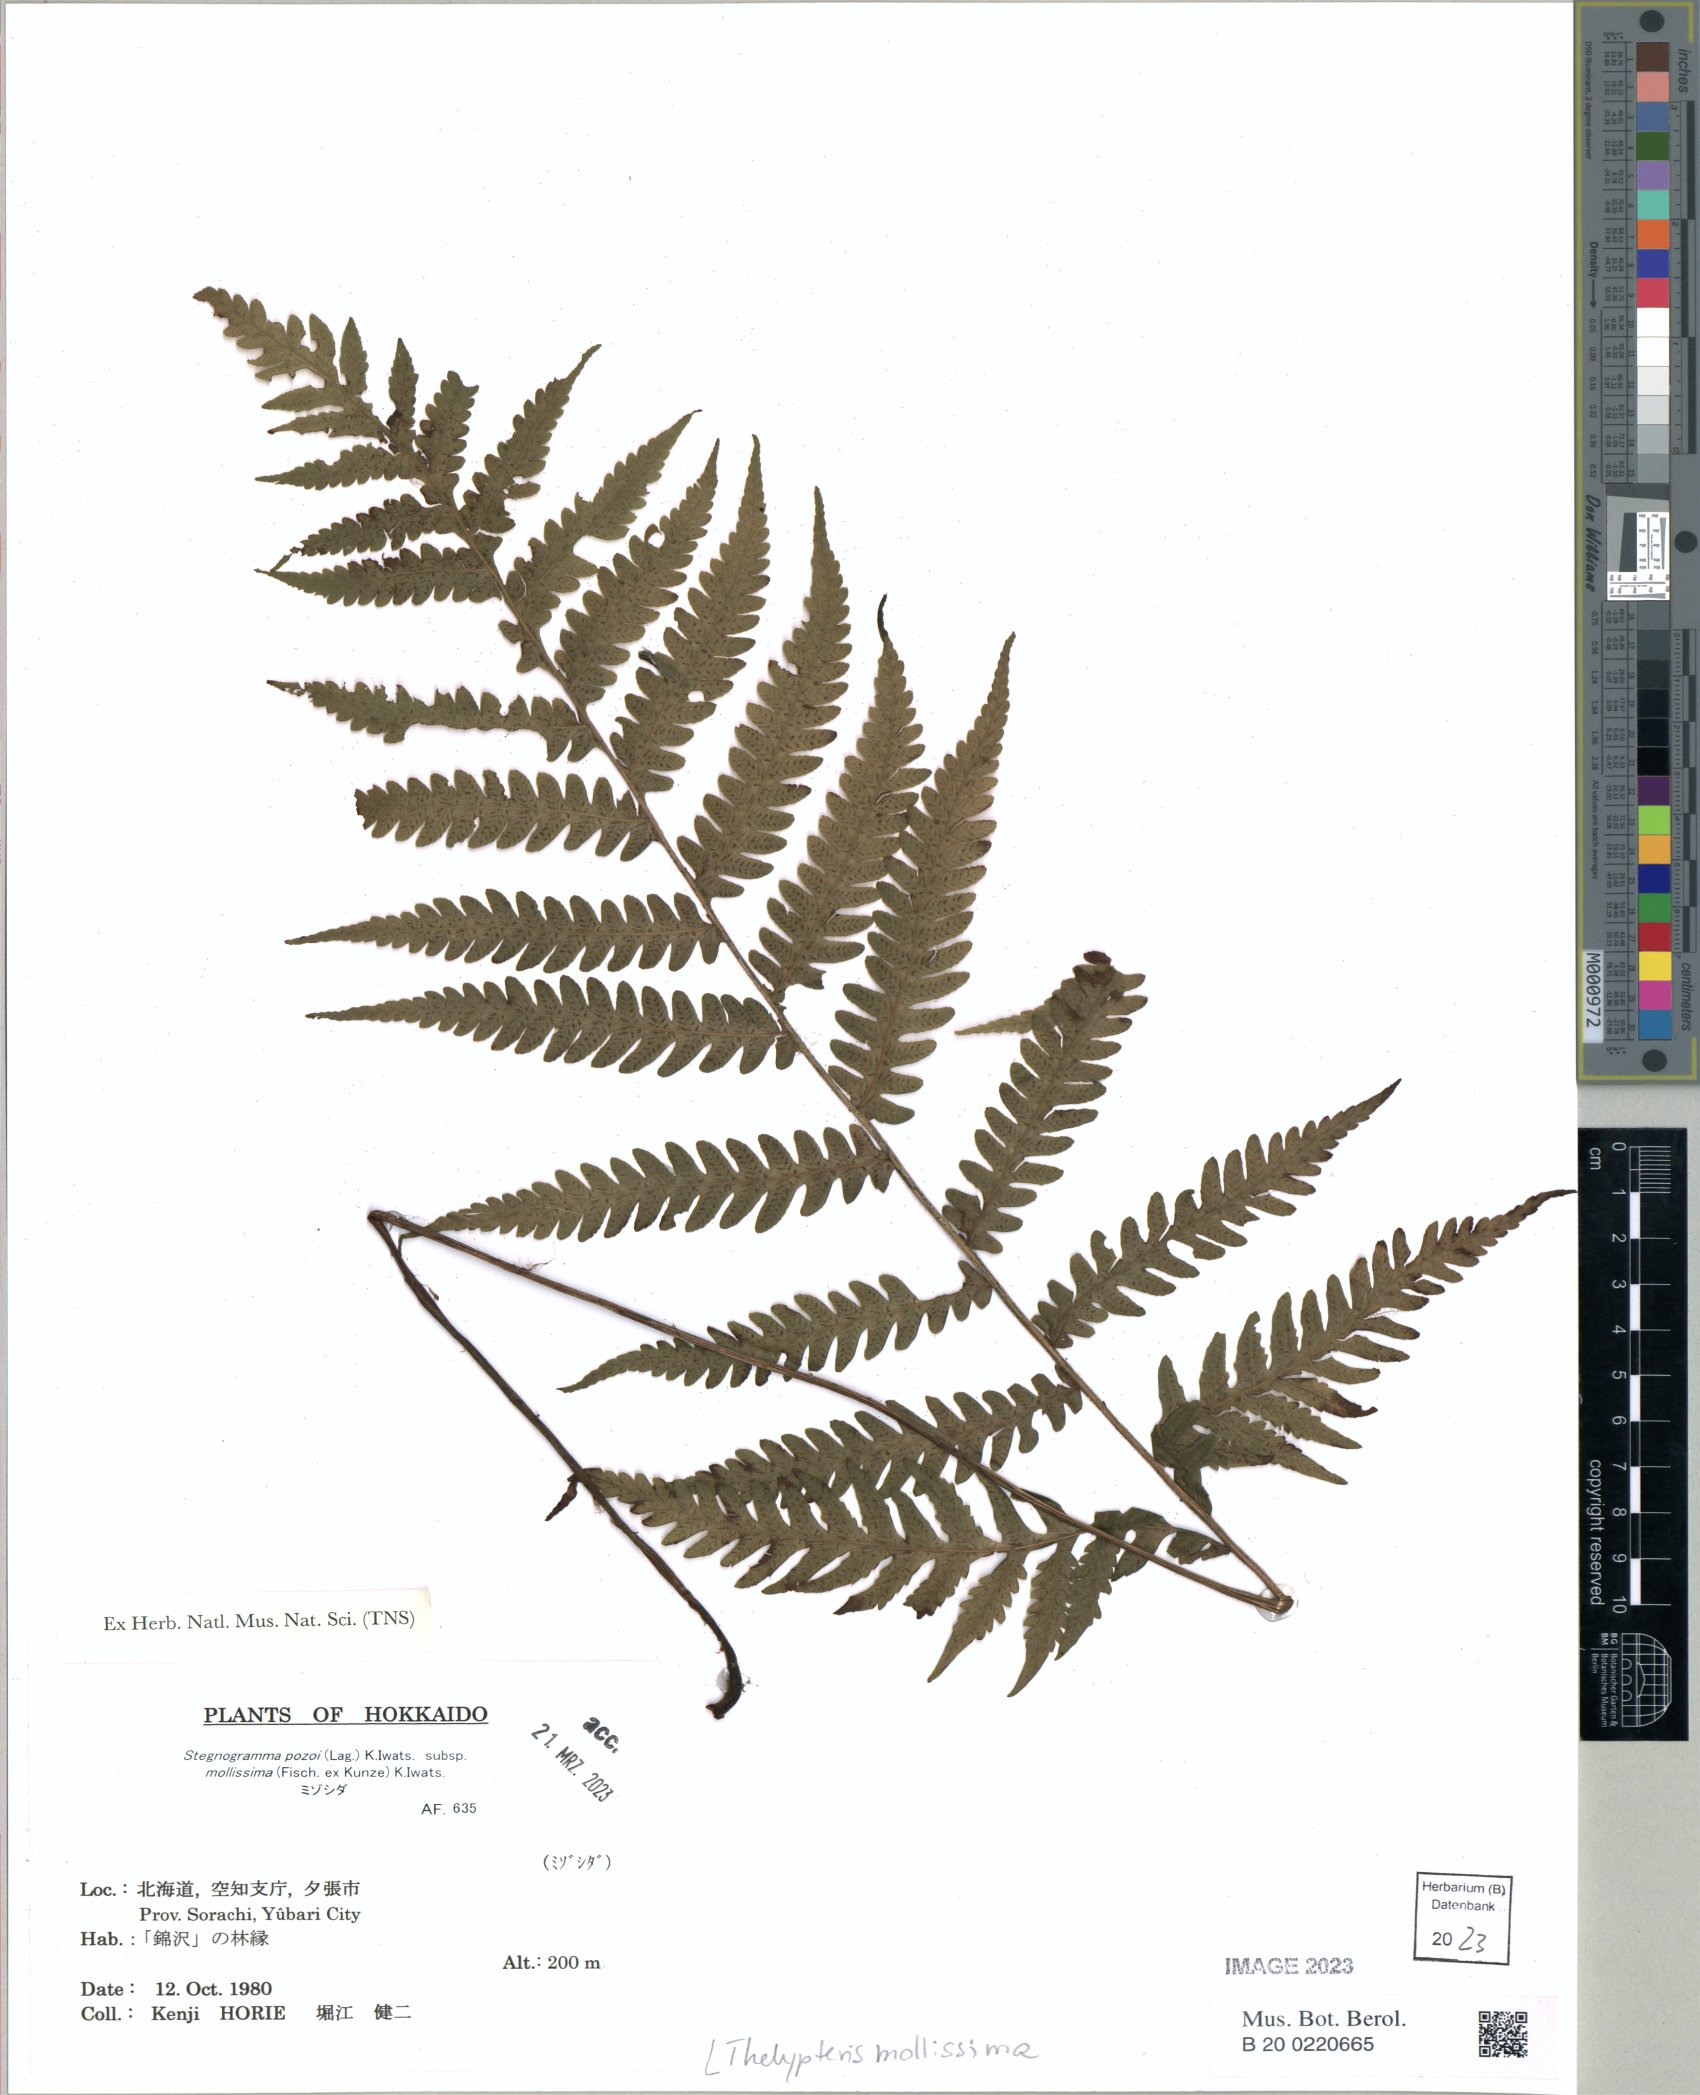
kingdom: Plantae
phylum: Tracheophyta
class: Polypodiopsida
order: Polypodiales
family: Thelypteridaceae
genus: Leptogramma
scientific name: Leptogramma mollissima
